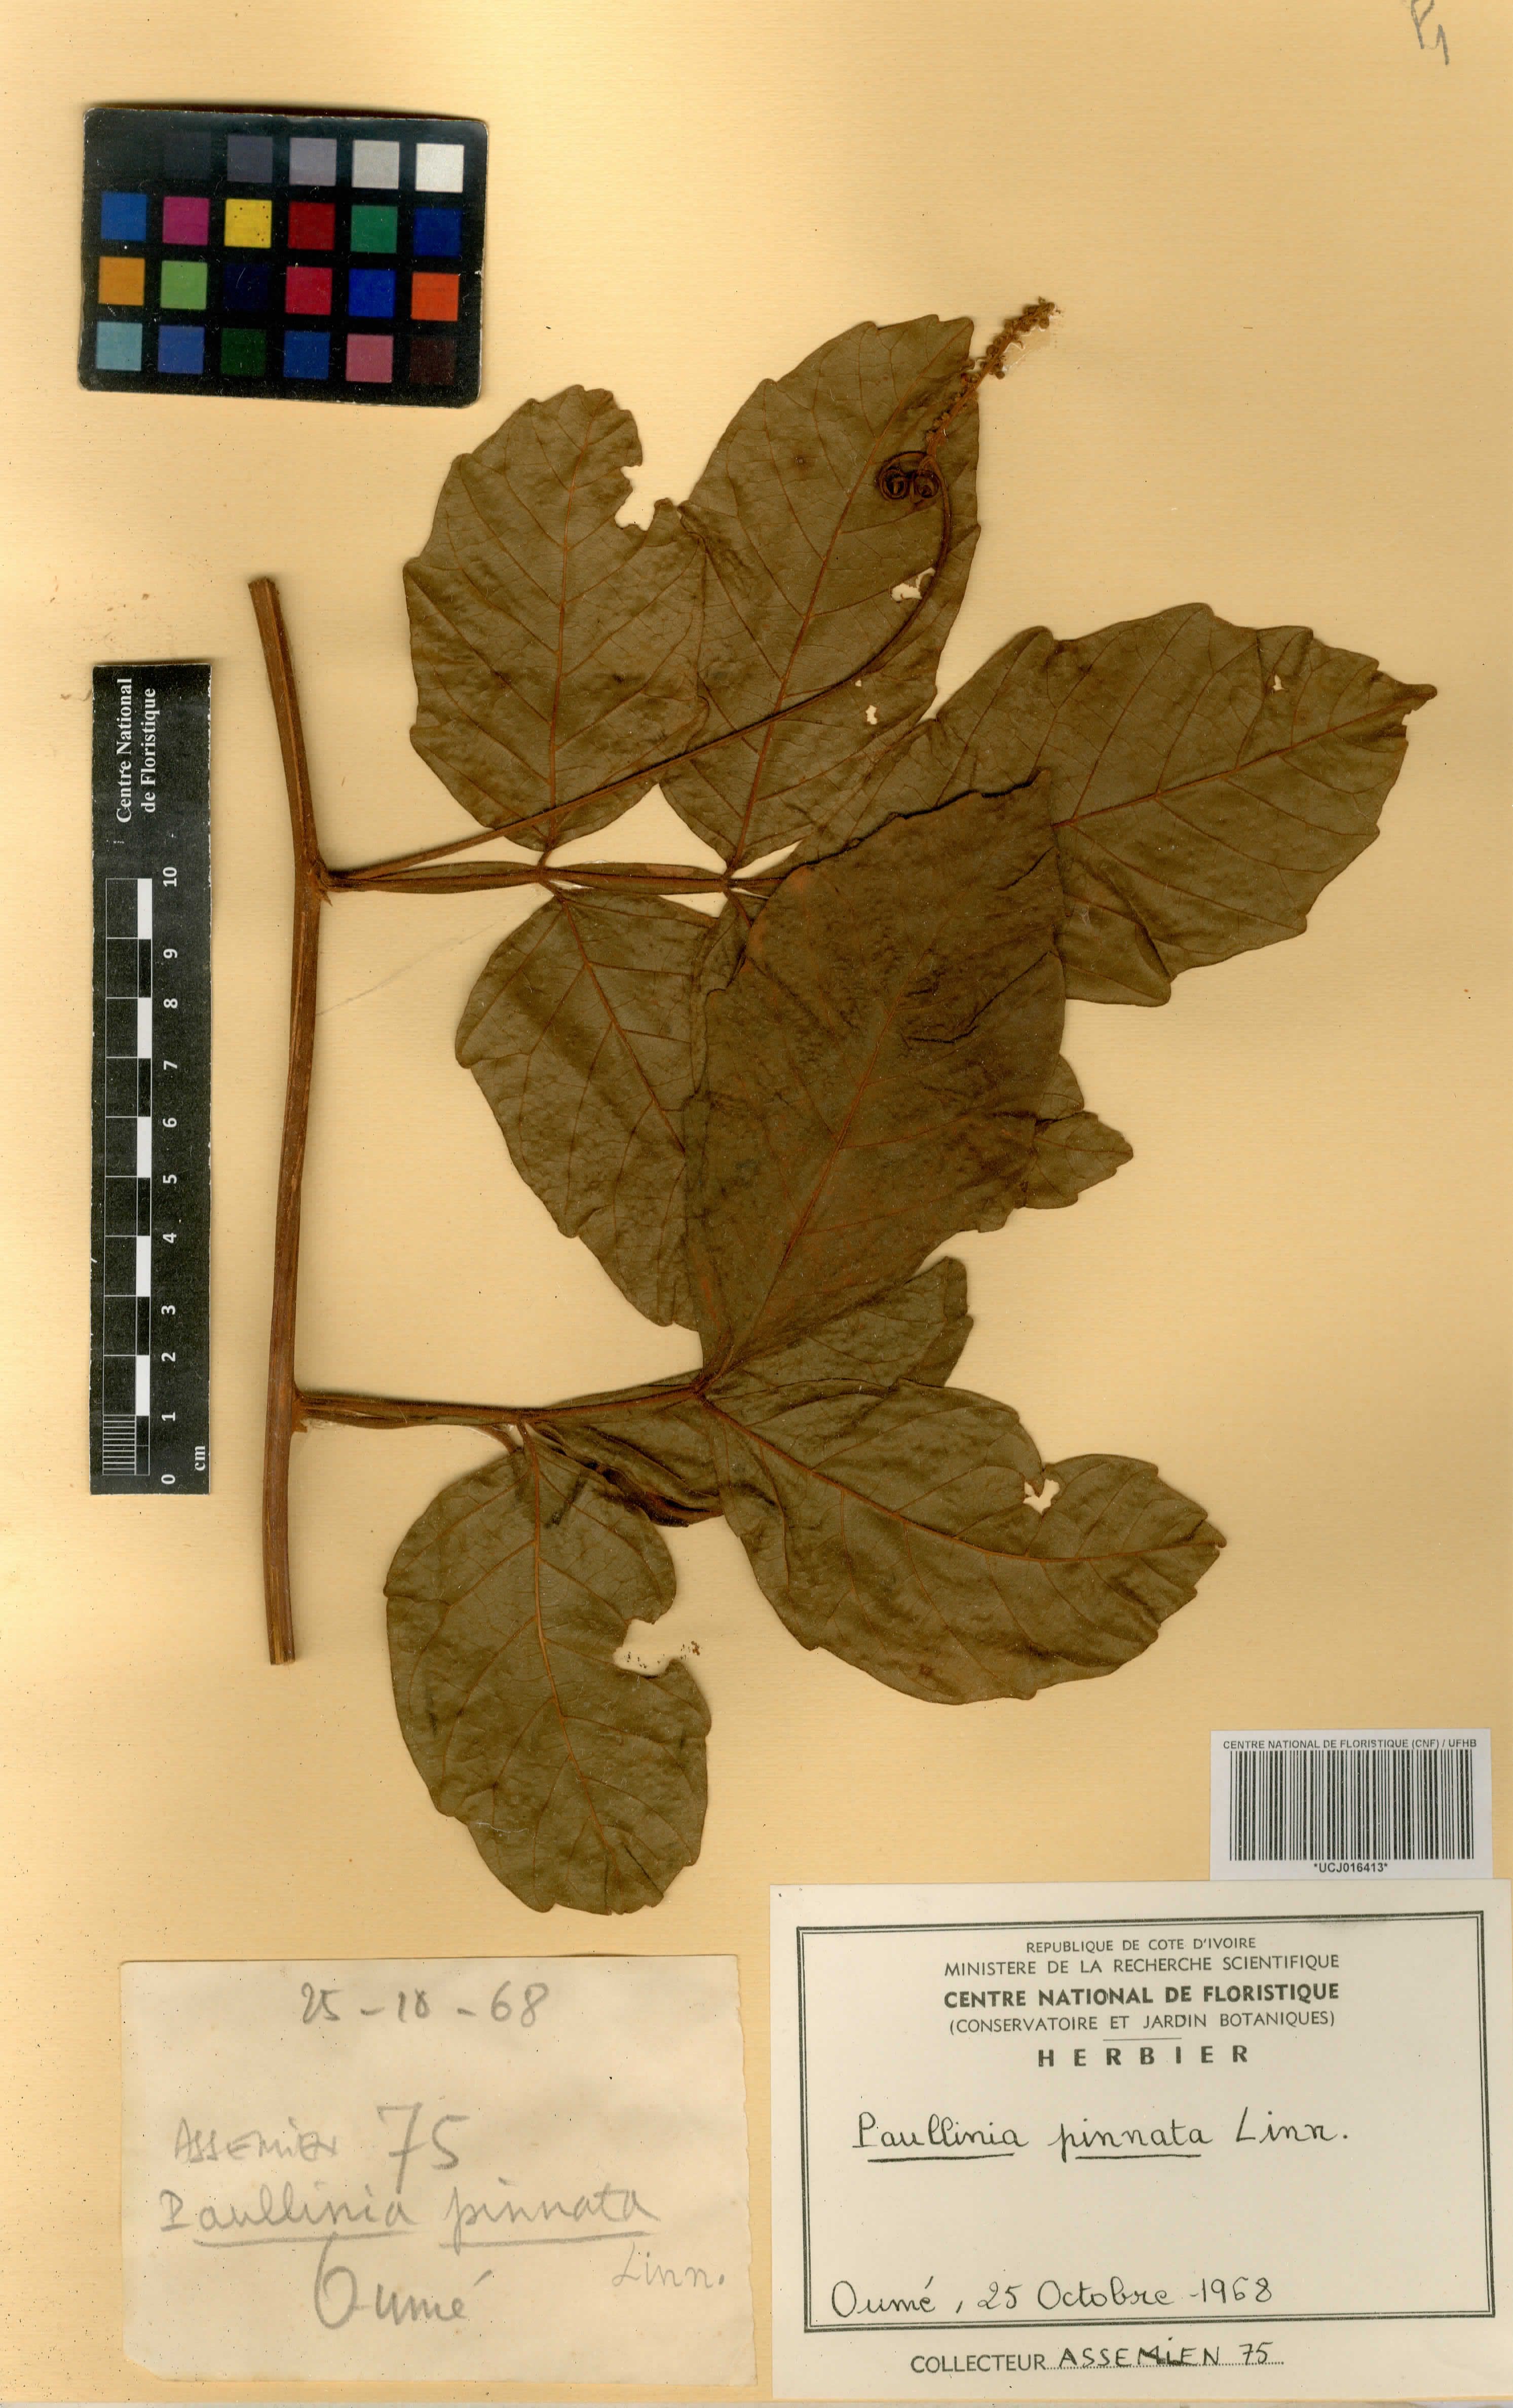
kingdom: Plantae
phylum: Tracheophyta
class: Magnoliopsida
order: Sapindales
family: Sapindaceae
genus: Paullinia
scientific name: Paullinia pinnata
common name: Barbasco
